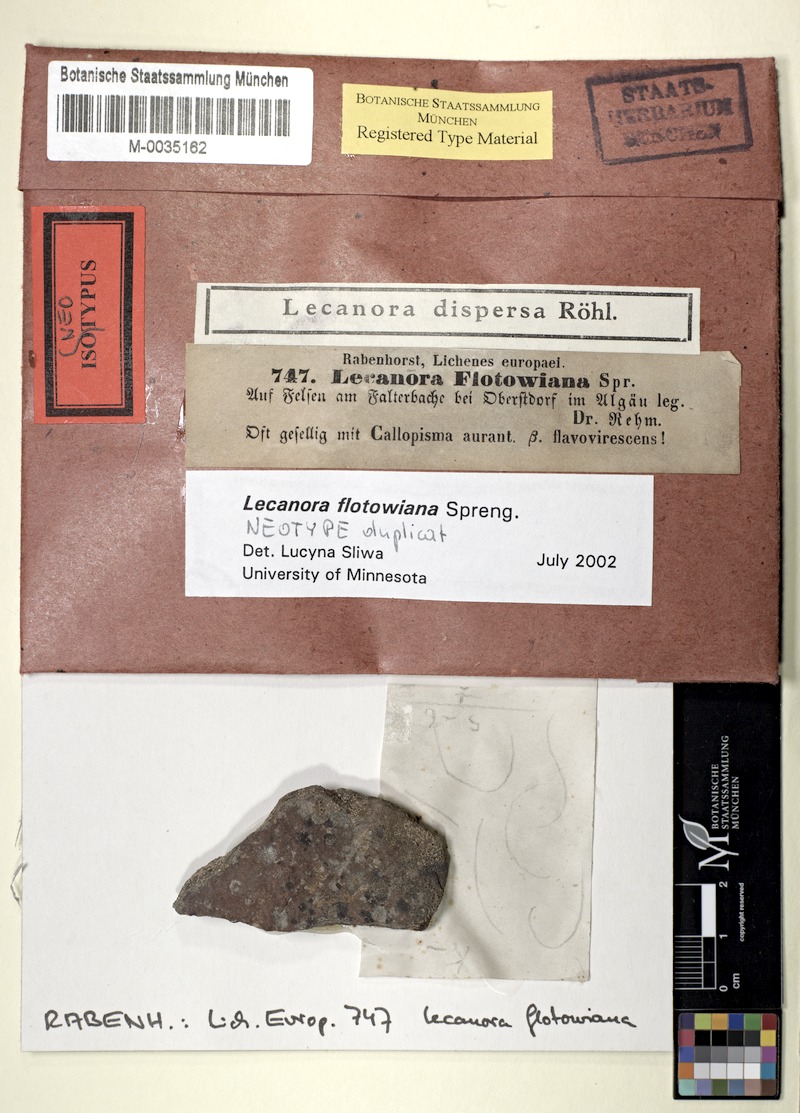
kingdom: Fungi
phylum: Ascomycota
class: Lecanoromycetes
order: Lecanorales
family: Lecanoraceae
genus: Lecanora
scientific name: Lecanora flotoviana
